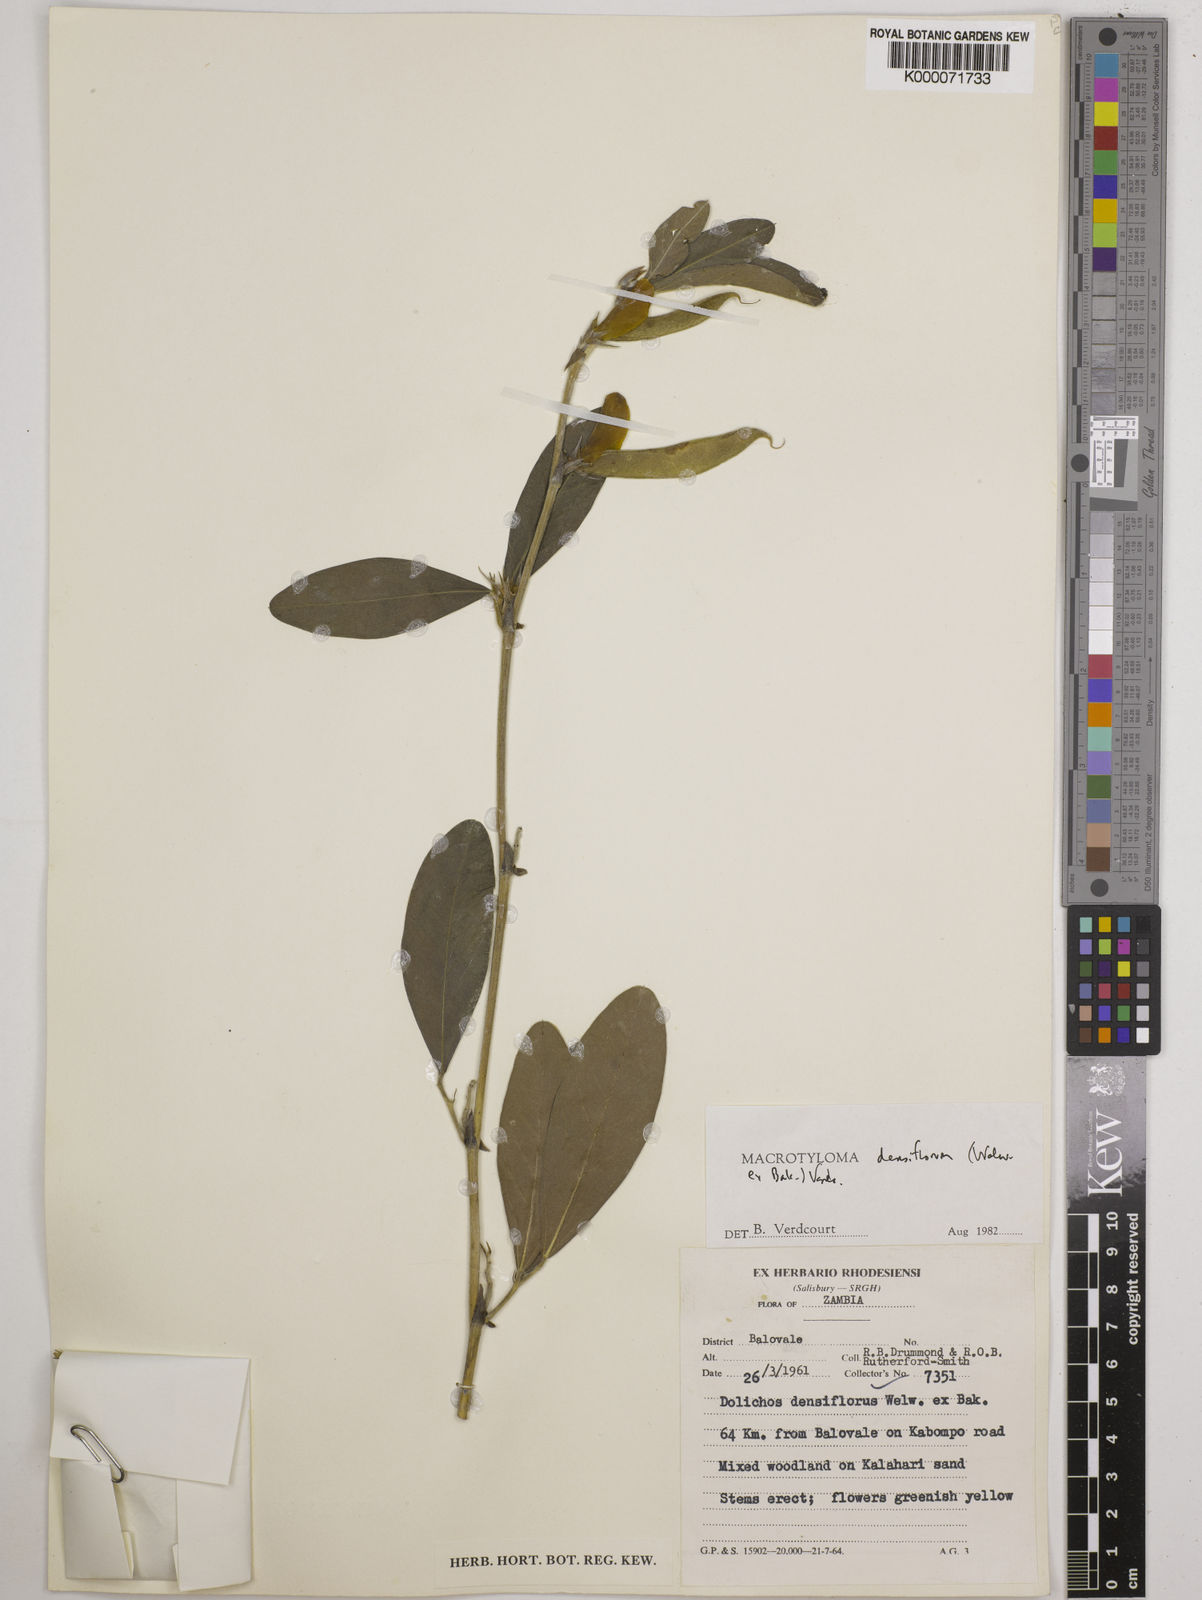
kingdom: Plantae
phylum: Tracheophyta
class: Magnoliopsida
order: Fabales
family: Fabaceae
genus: Macrotyloma
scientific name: Macrotyloma densiflorum
